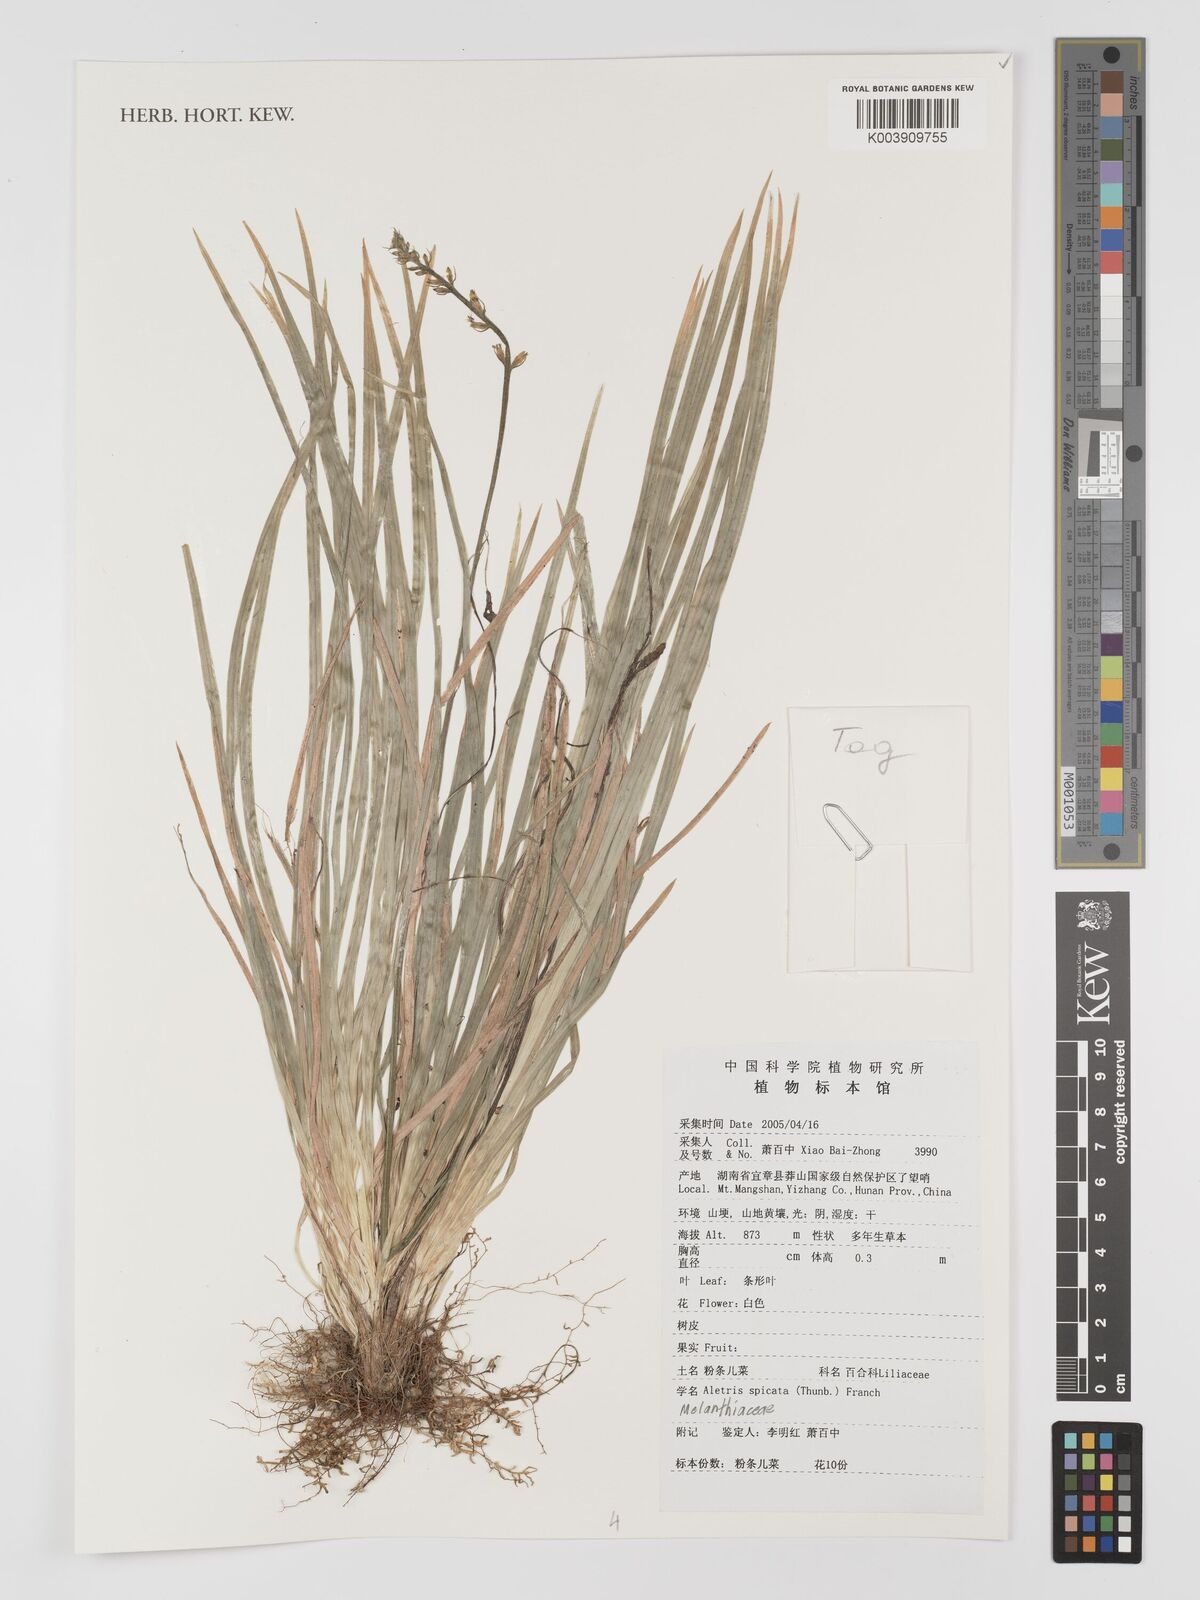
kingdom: Plantae
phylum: Tracheophyta
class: Liliopsida
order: Dioscoreales
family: Nartheciaceae
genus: Aletris
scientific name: Aletris spicata
